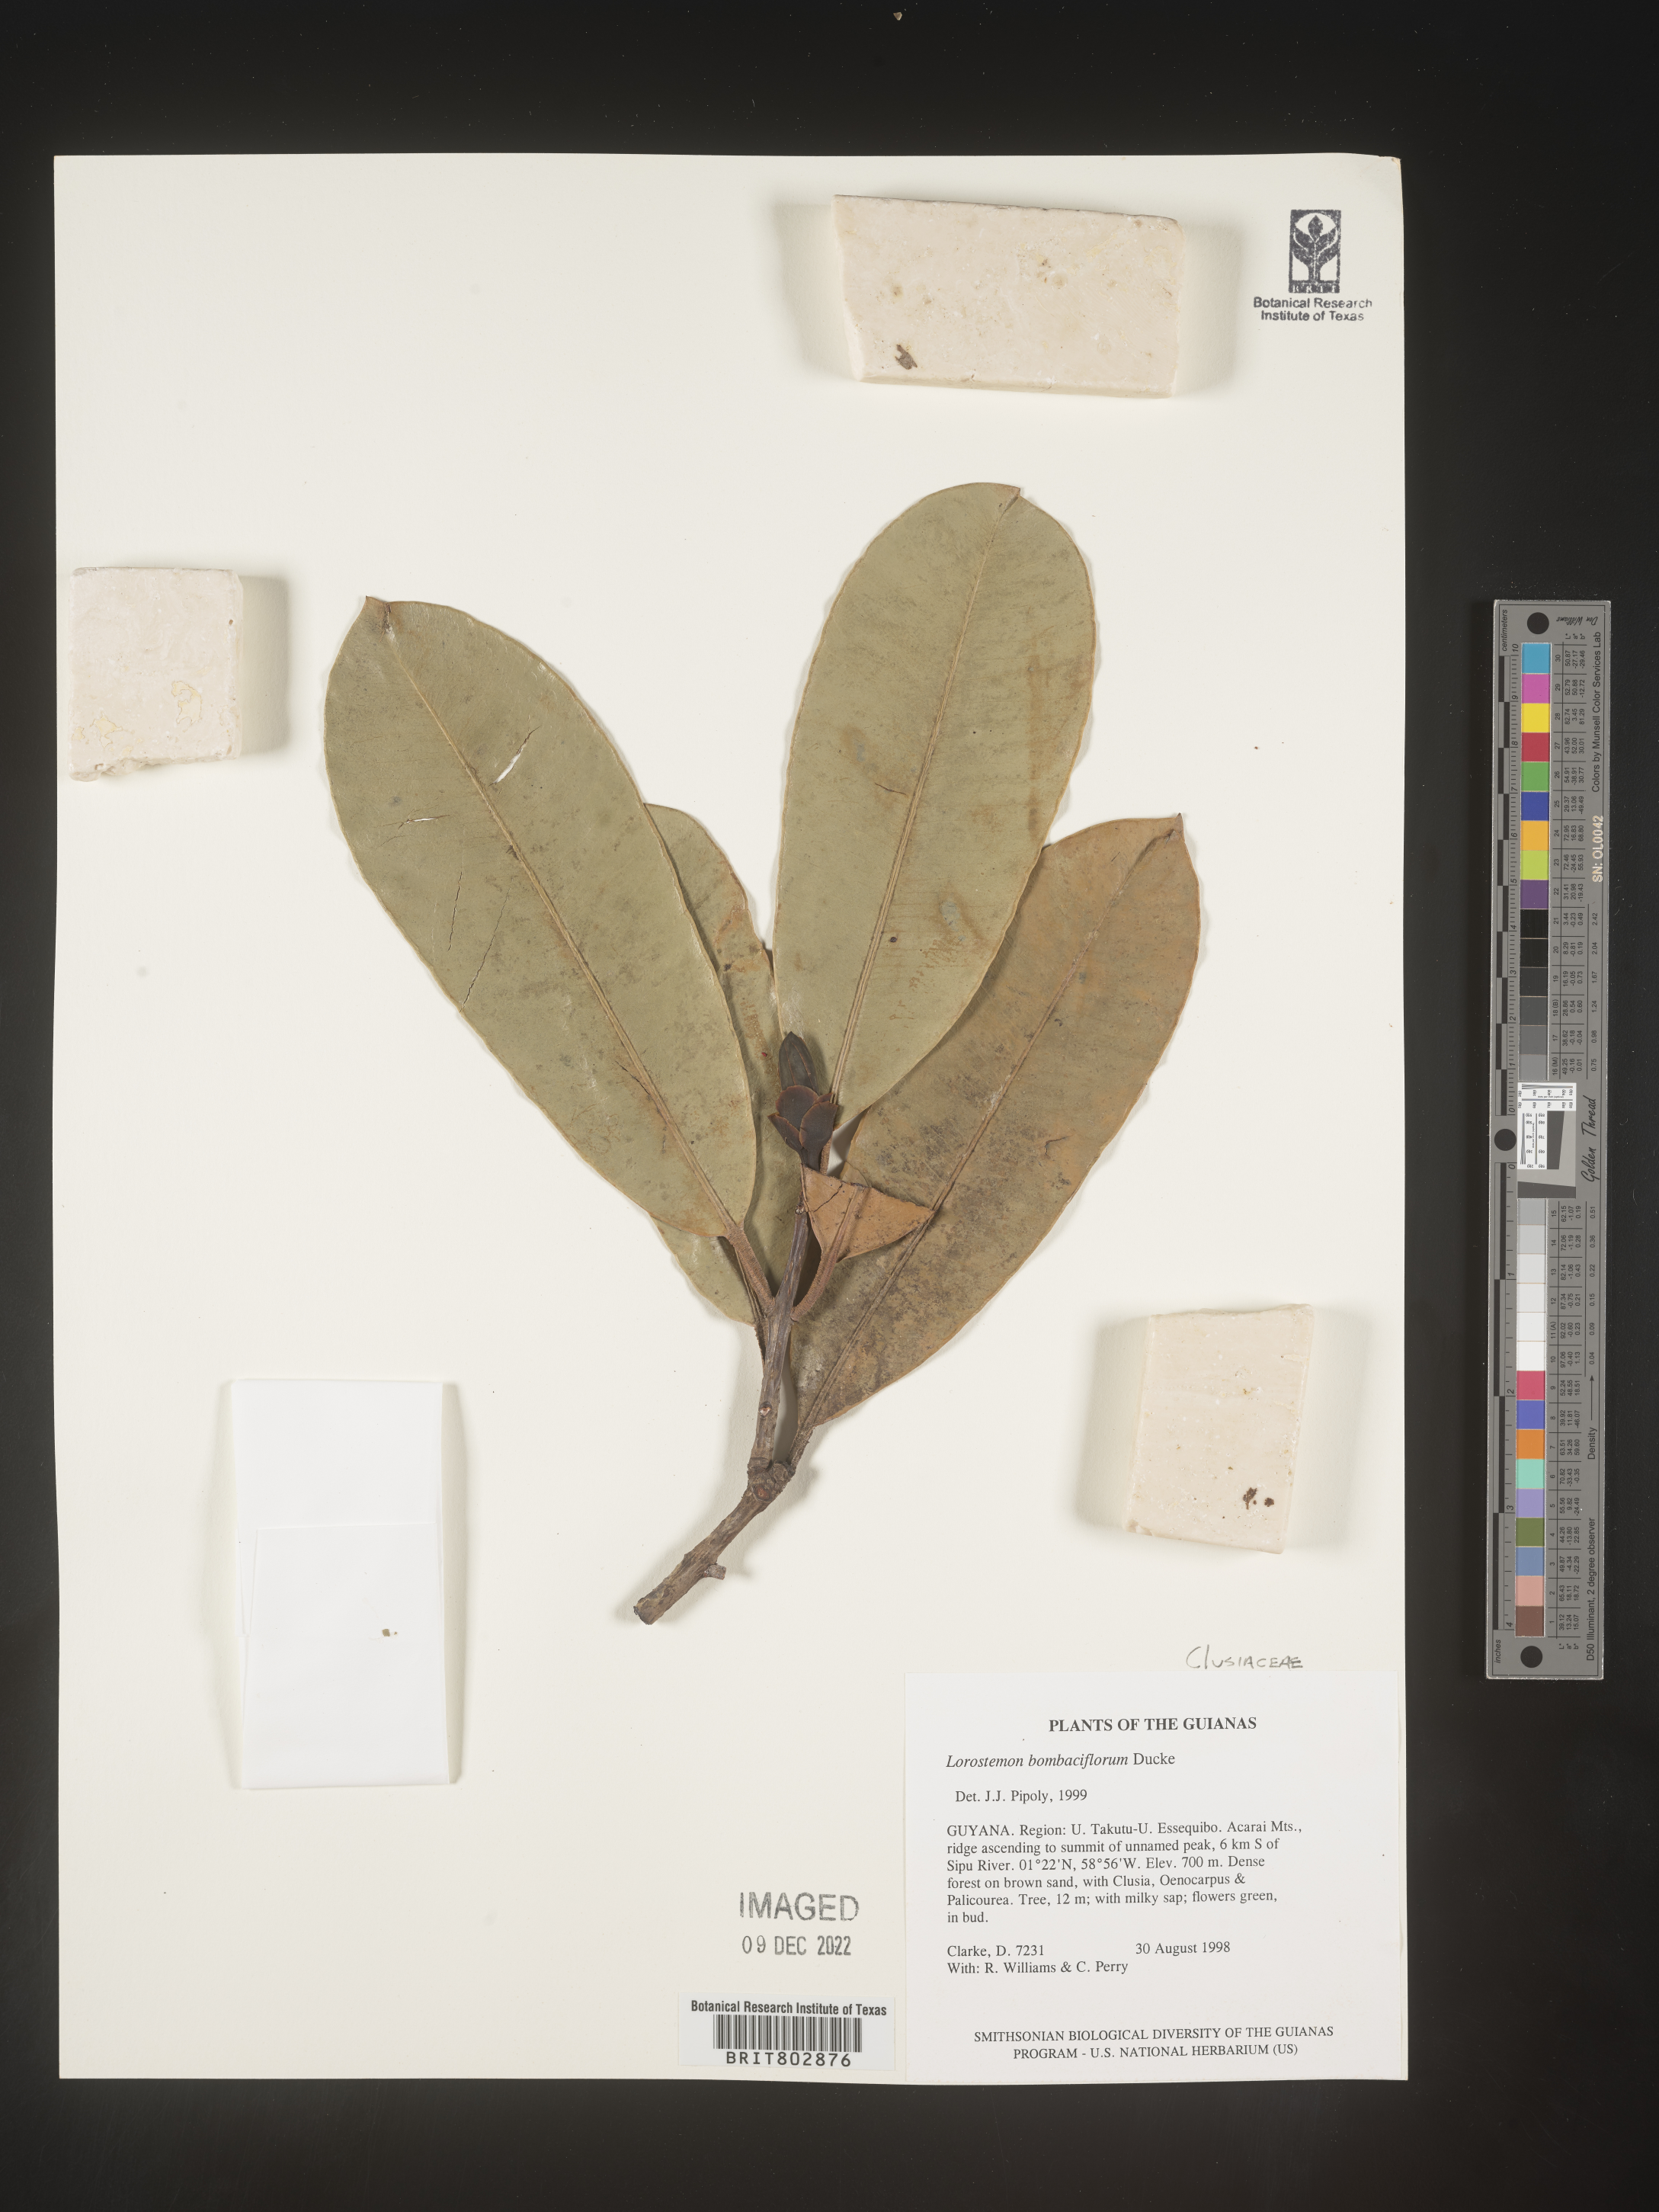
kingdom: Plantae
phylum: Tracheophyta
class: Magnoliopsida
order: Malpighiales
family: Clusiaceae
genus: Lorostemon
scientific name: Lorostemon
